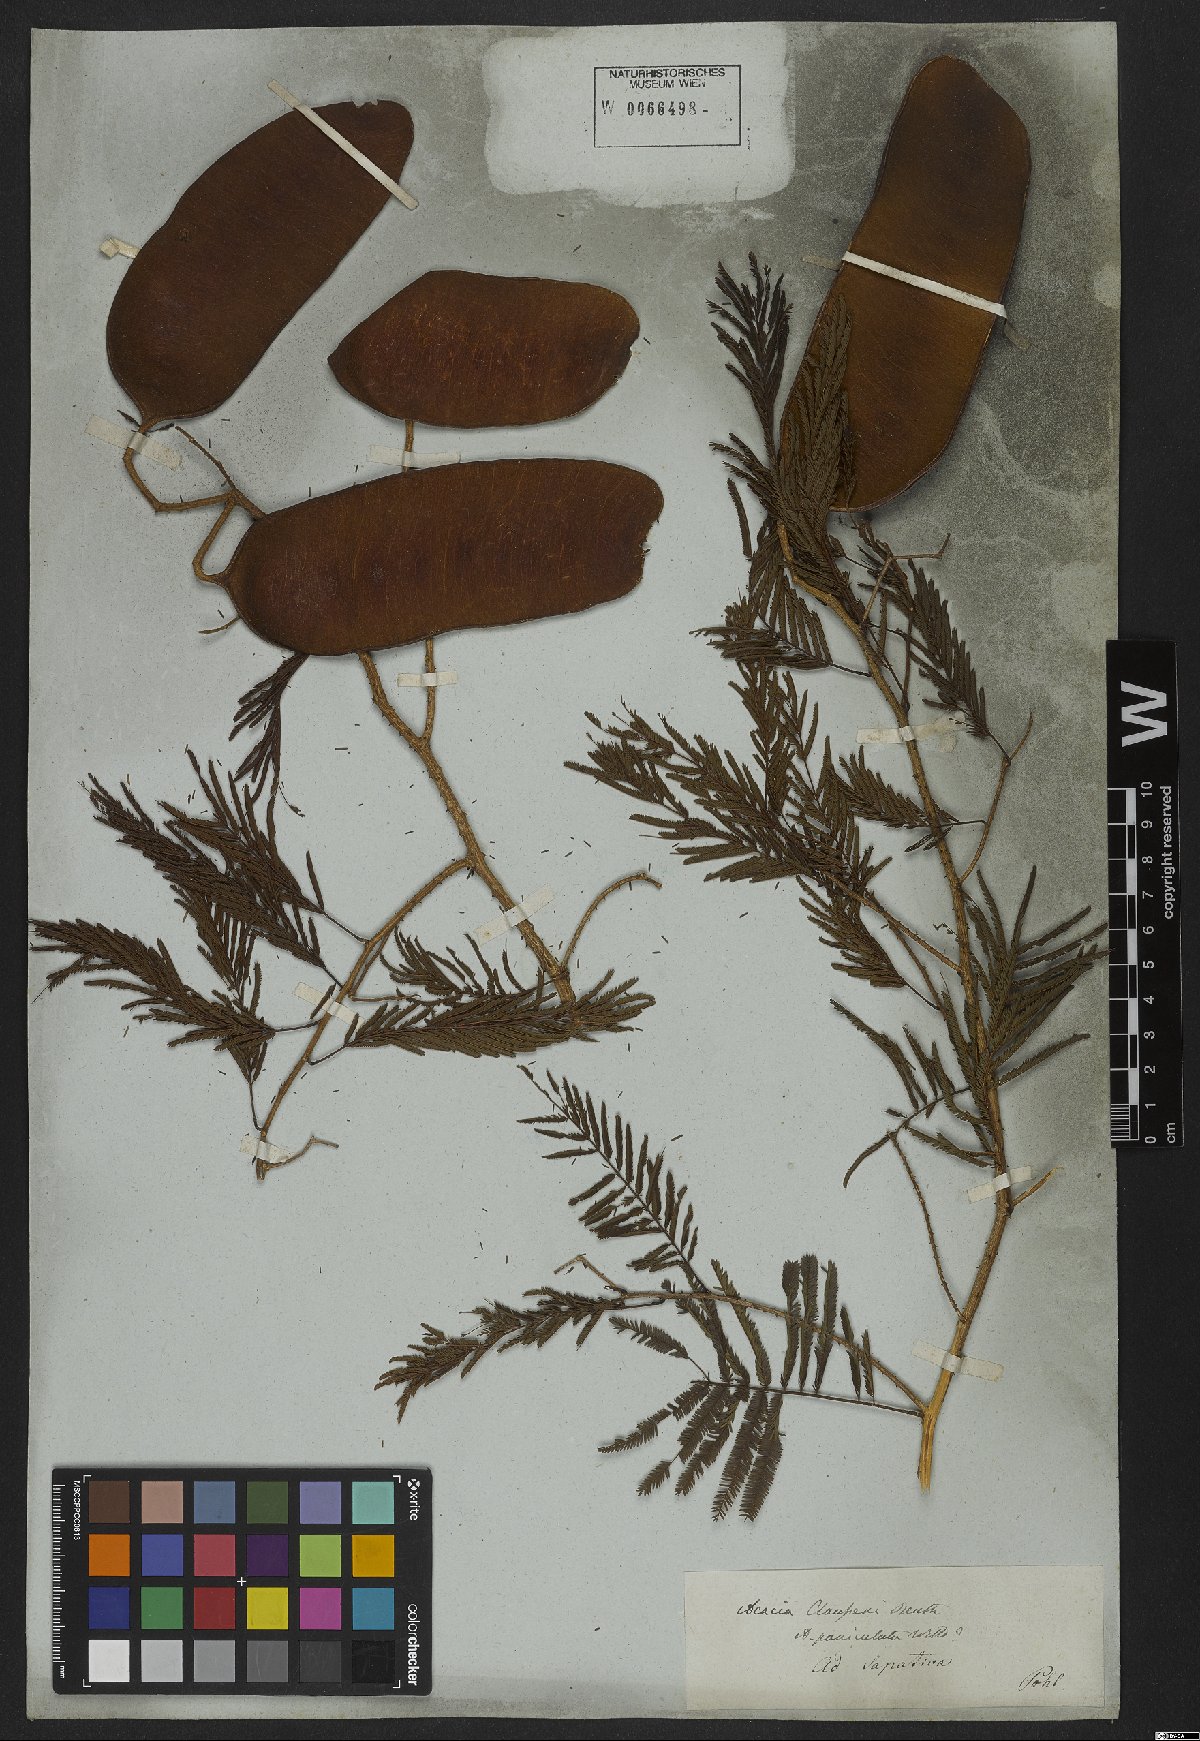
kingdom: Plantae
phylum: Tracheophyta
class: Magnoliopsida
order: Fabales
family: Fabaceae
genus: Senegalia
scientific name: Senegalia paniculata
